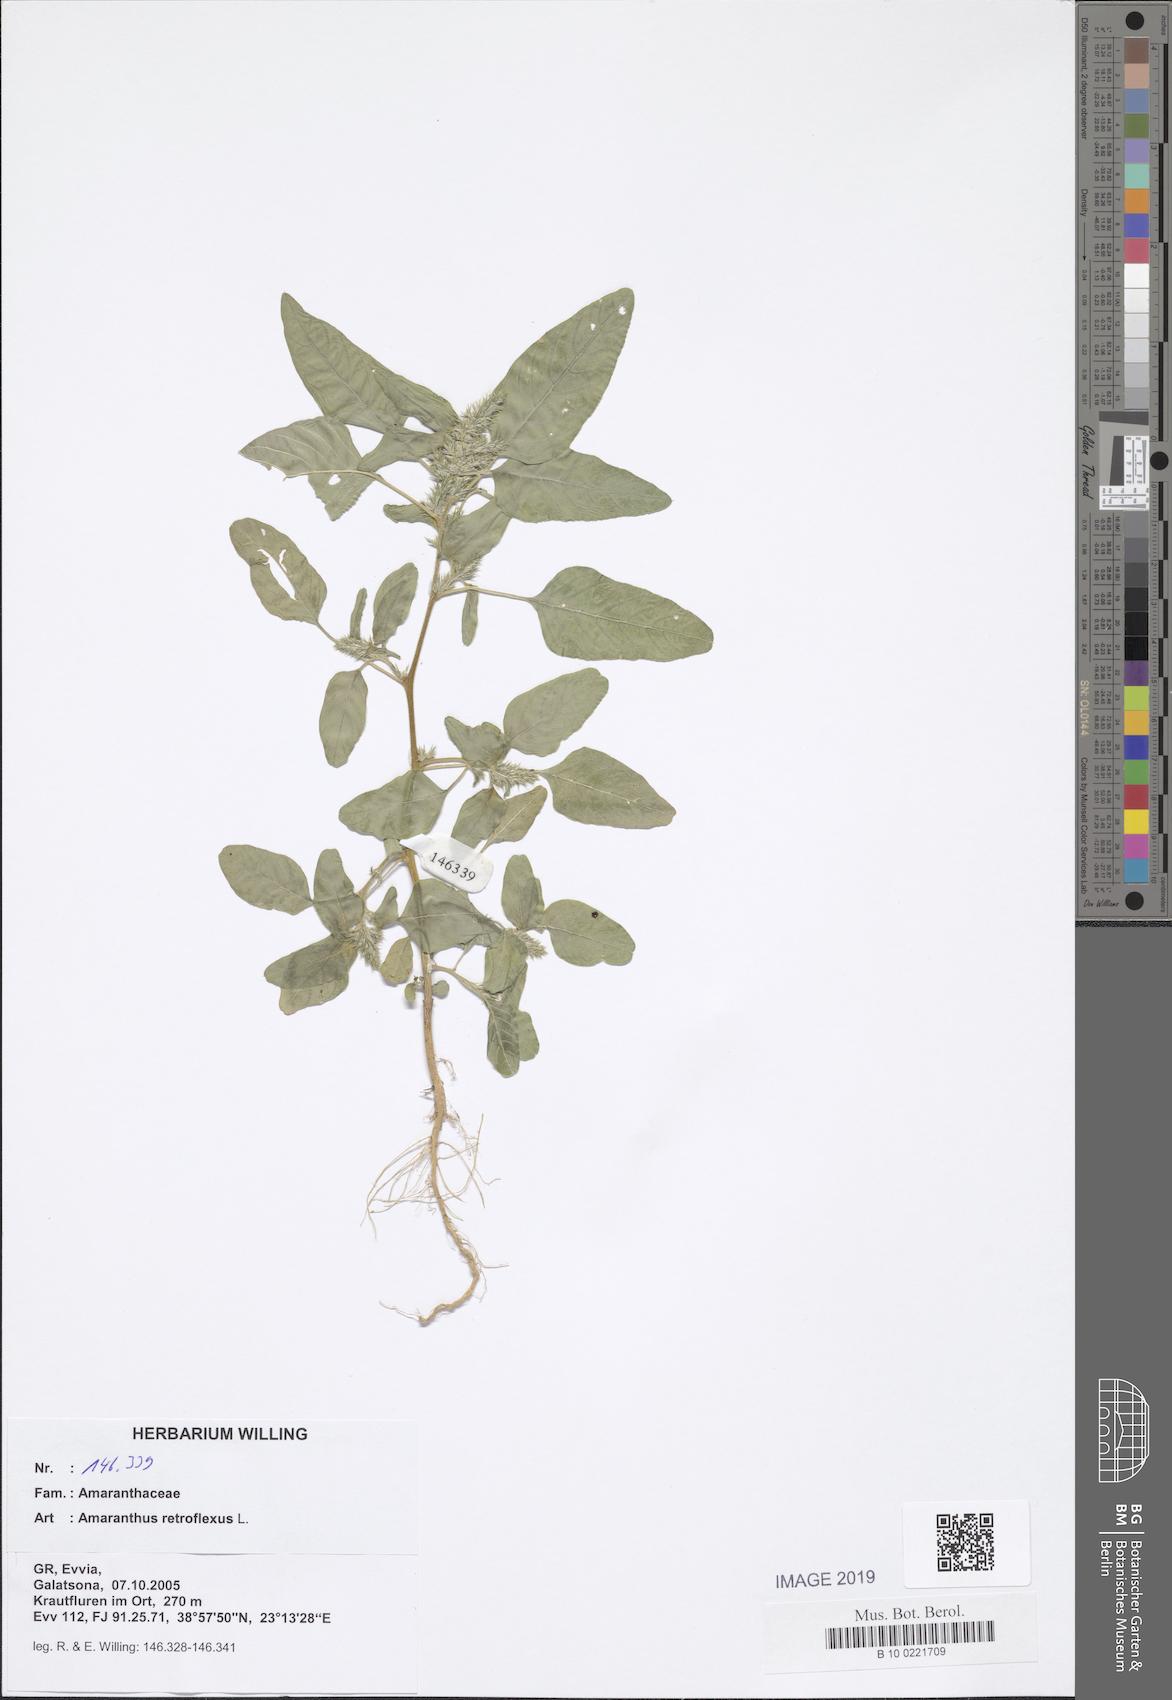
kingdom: Plantae
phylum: Tracheophyta
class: Magnoliopsida
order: Caryophyllales
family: Amaranthaceae
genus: Amaranthus
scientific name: Amaranthus retroflexus
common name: Redroot amaranth
